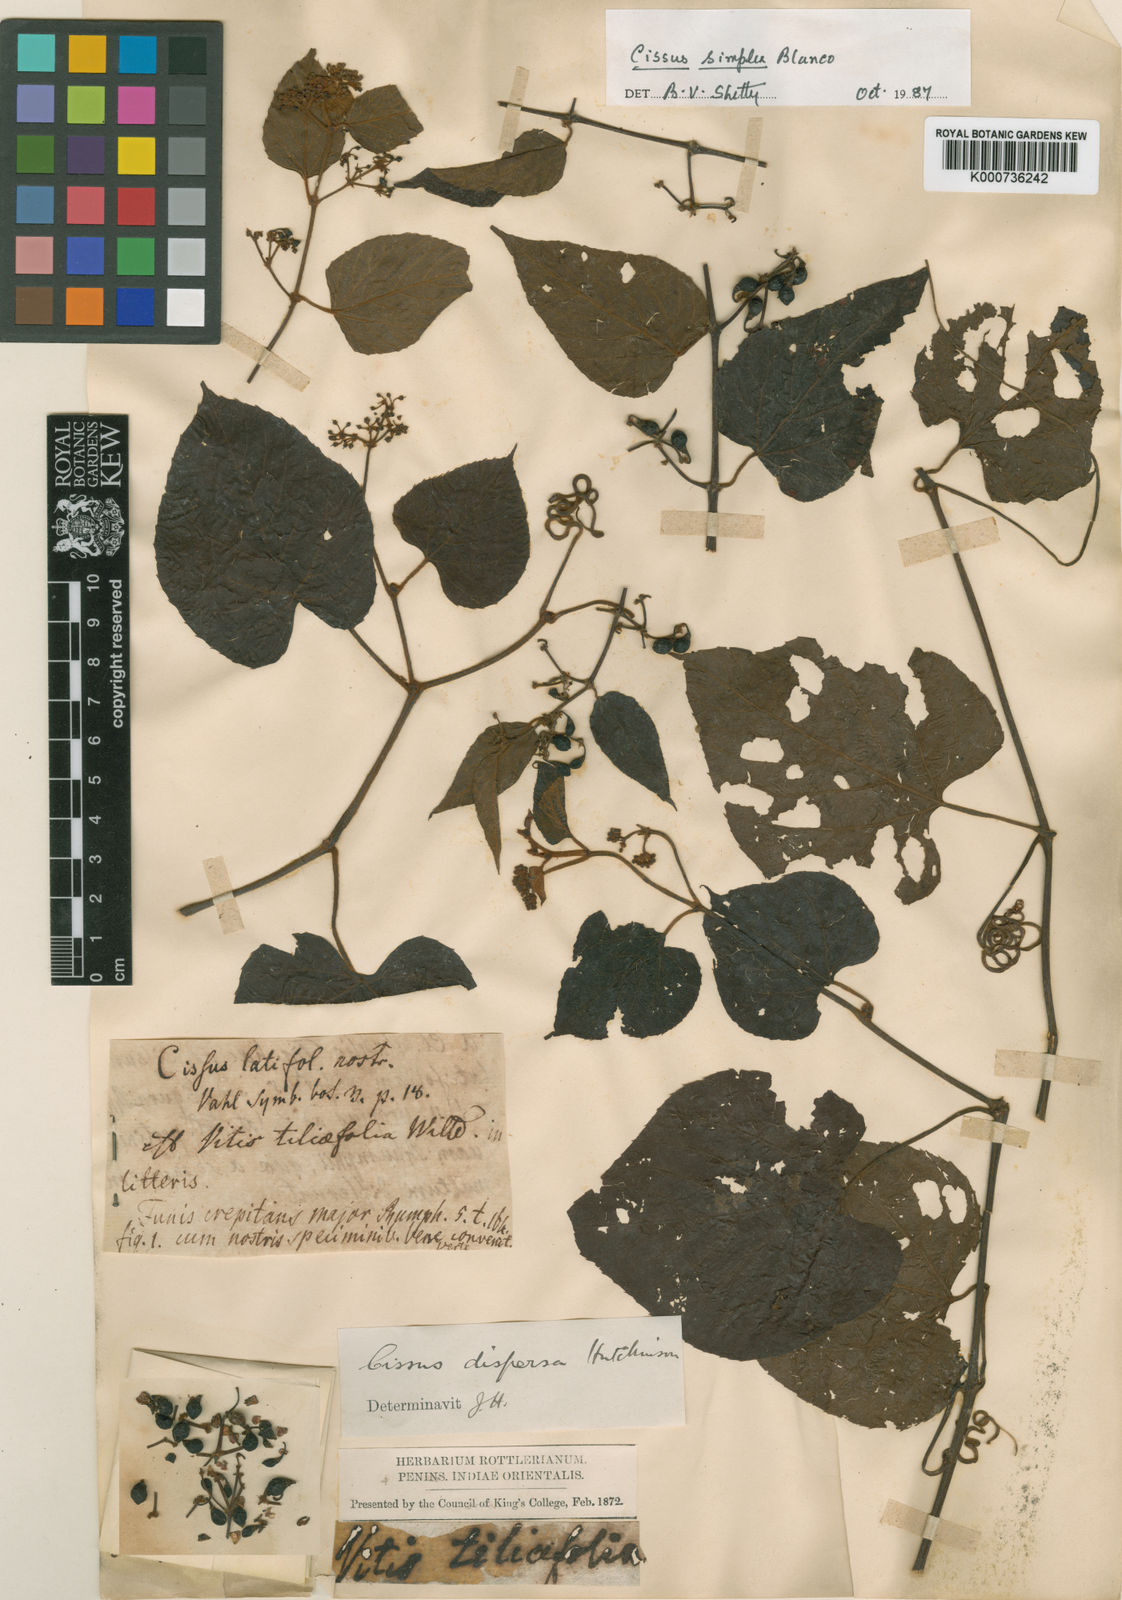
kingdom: Plantae
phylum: Tracheophyta
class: Magnoliopsida
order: Vitales
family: Vitaceae
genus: Cissus
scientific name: Cissus
